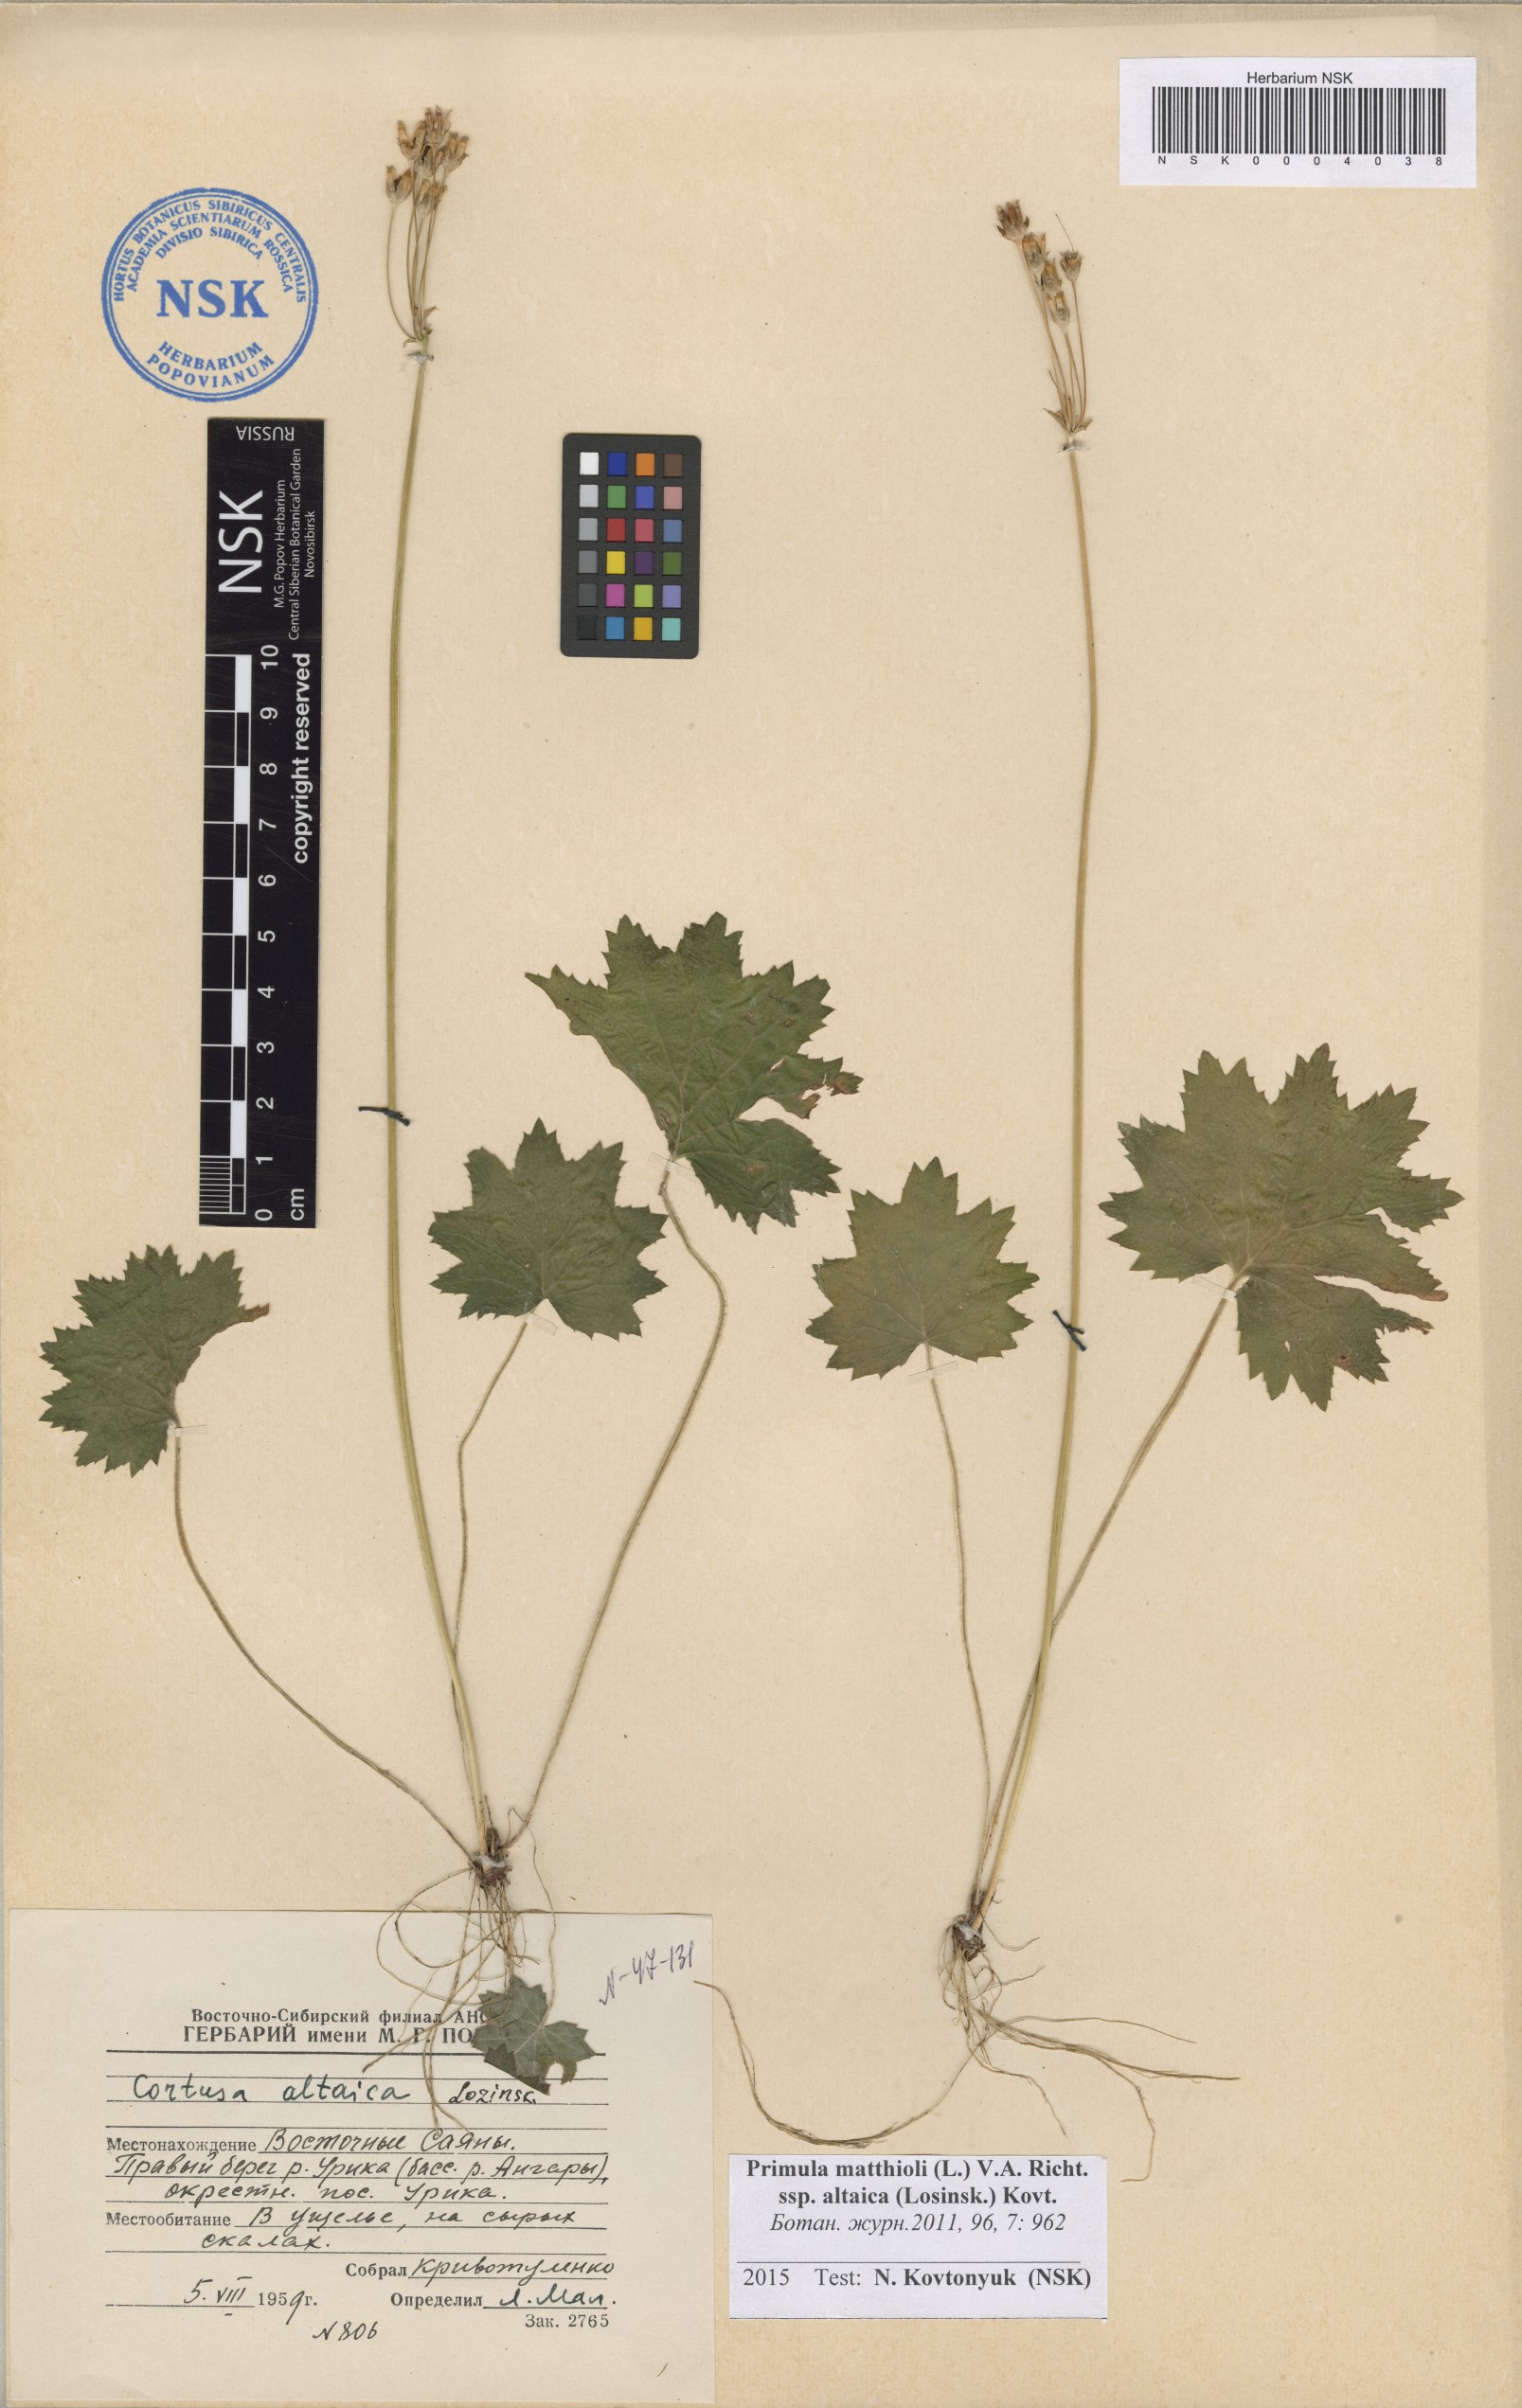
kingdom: Plantae
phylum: Tracheophyta
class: Magnoliopsida
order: Ericales
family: Primulaceae
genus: Primula
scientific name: Primula matthioli
